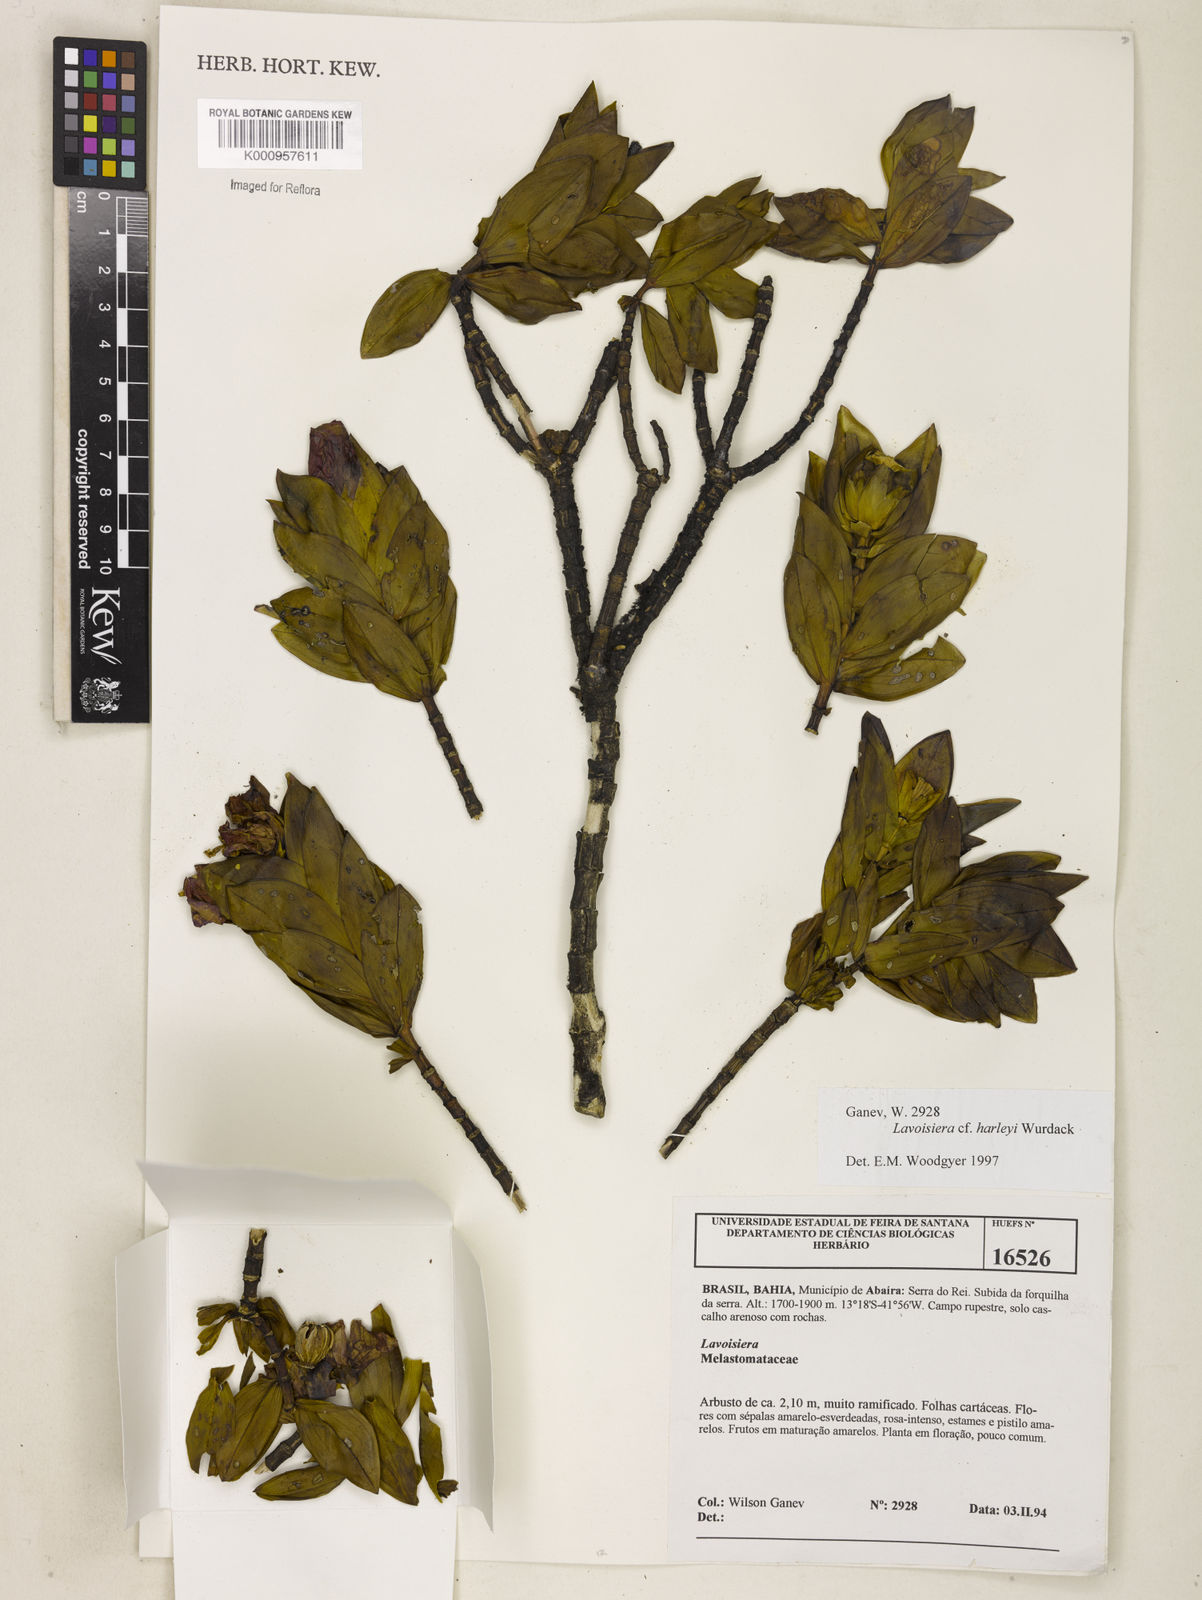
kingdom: Plantae
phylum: Tracheophyta
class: Magnoliopsida
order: Myrtales
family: Melastomataceae
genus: Microlicia
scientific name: Microlicia raymondii
